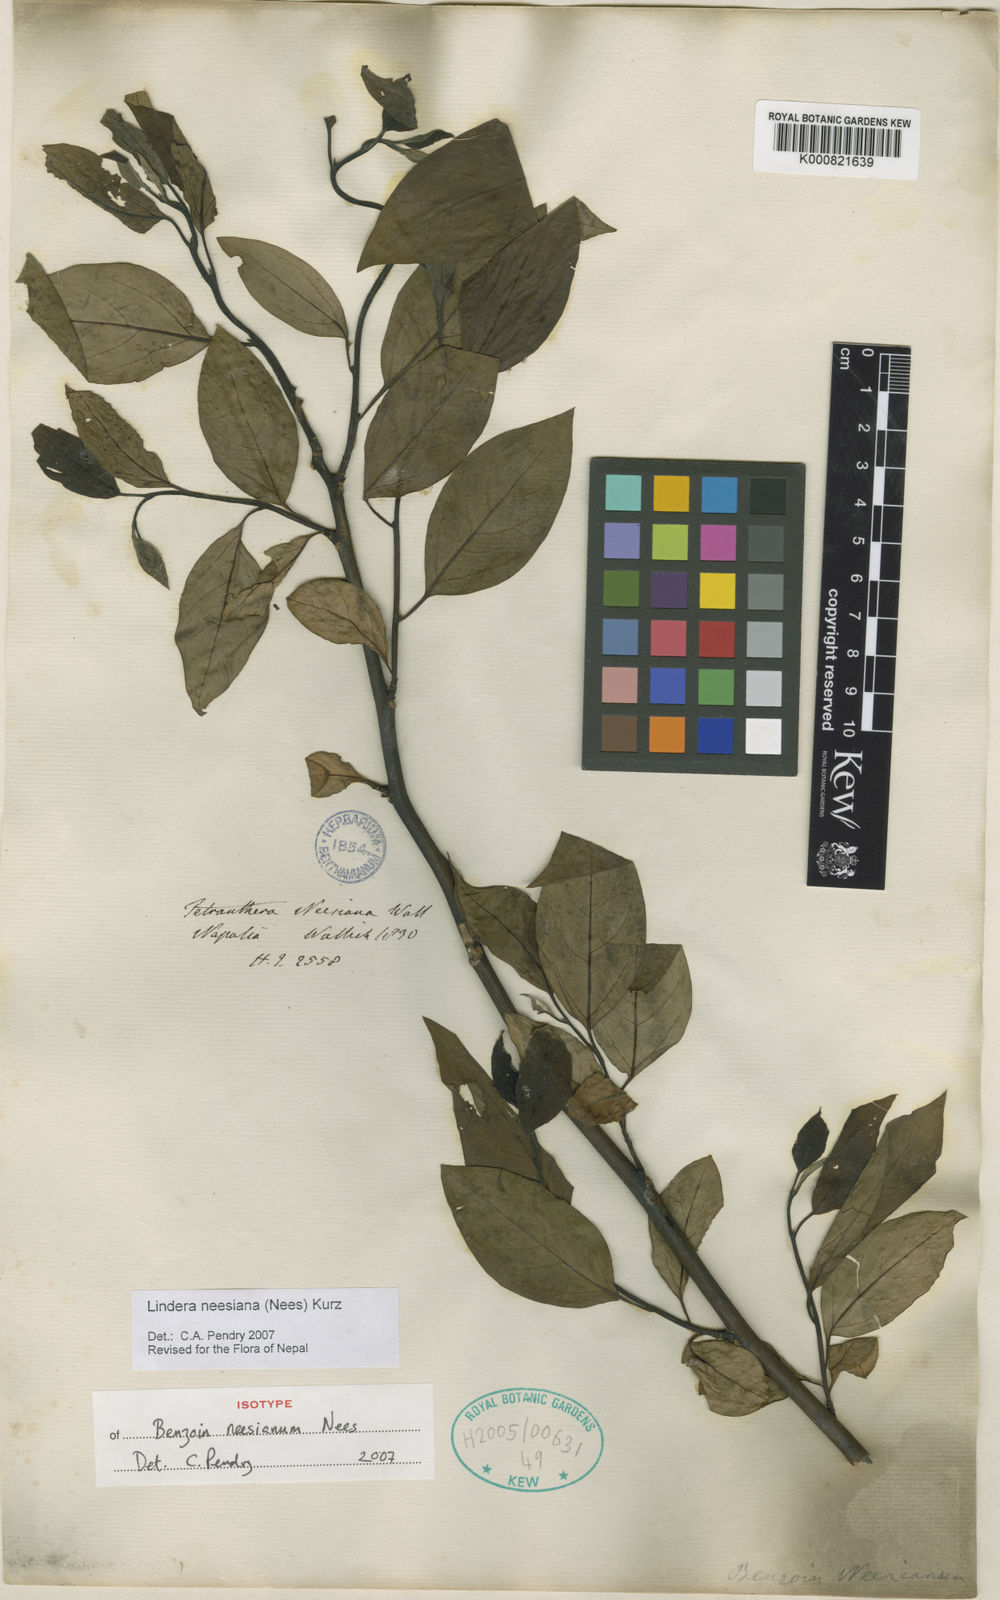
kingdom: Plantae
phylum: Tracheophyta
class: Magnoliopsida
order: Laurales
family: Lauraceae
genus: Lindera
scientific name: Lindera neesiana
